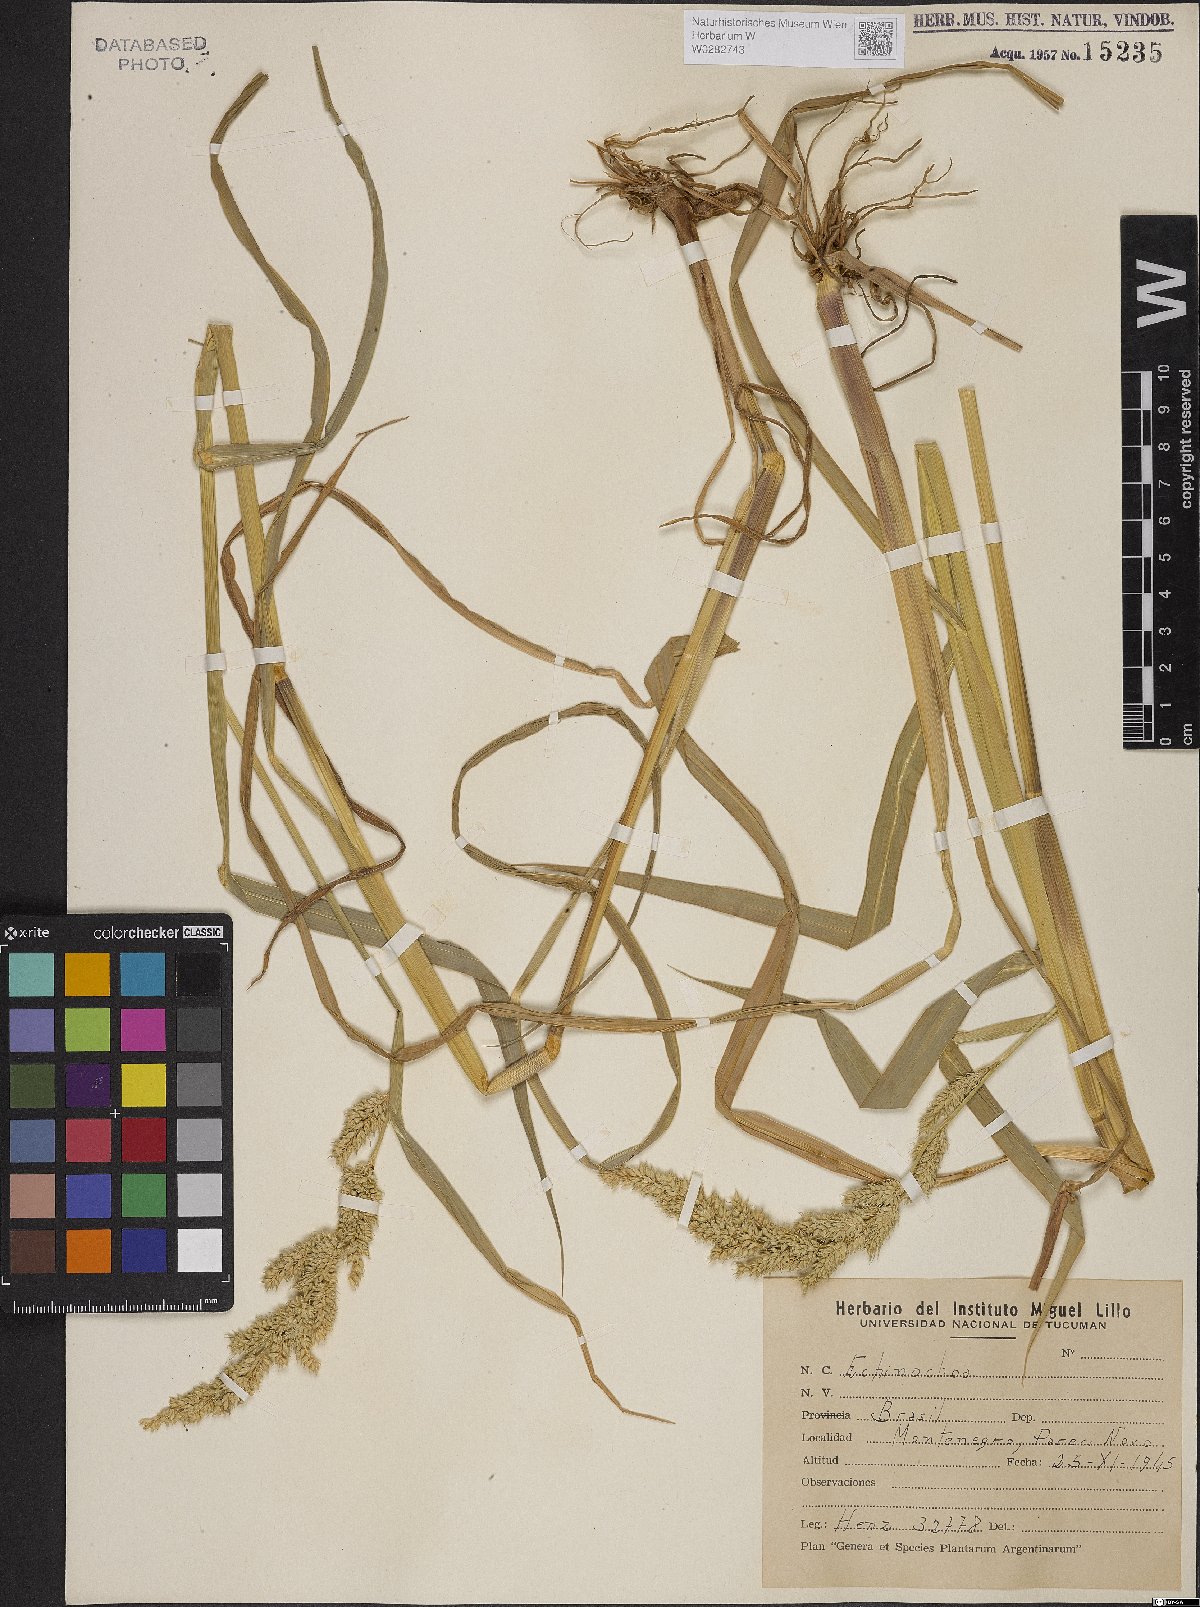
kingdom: Plantae
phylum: Tracheophyta
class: Liliopsida
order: Poales
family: Poaceae
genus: Echinochloa
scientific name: Echinochloa crus-galli
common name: Cockspur
